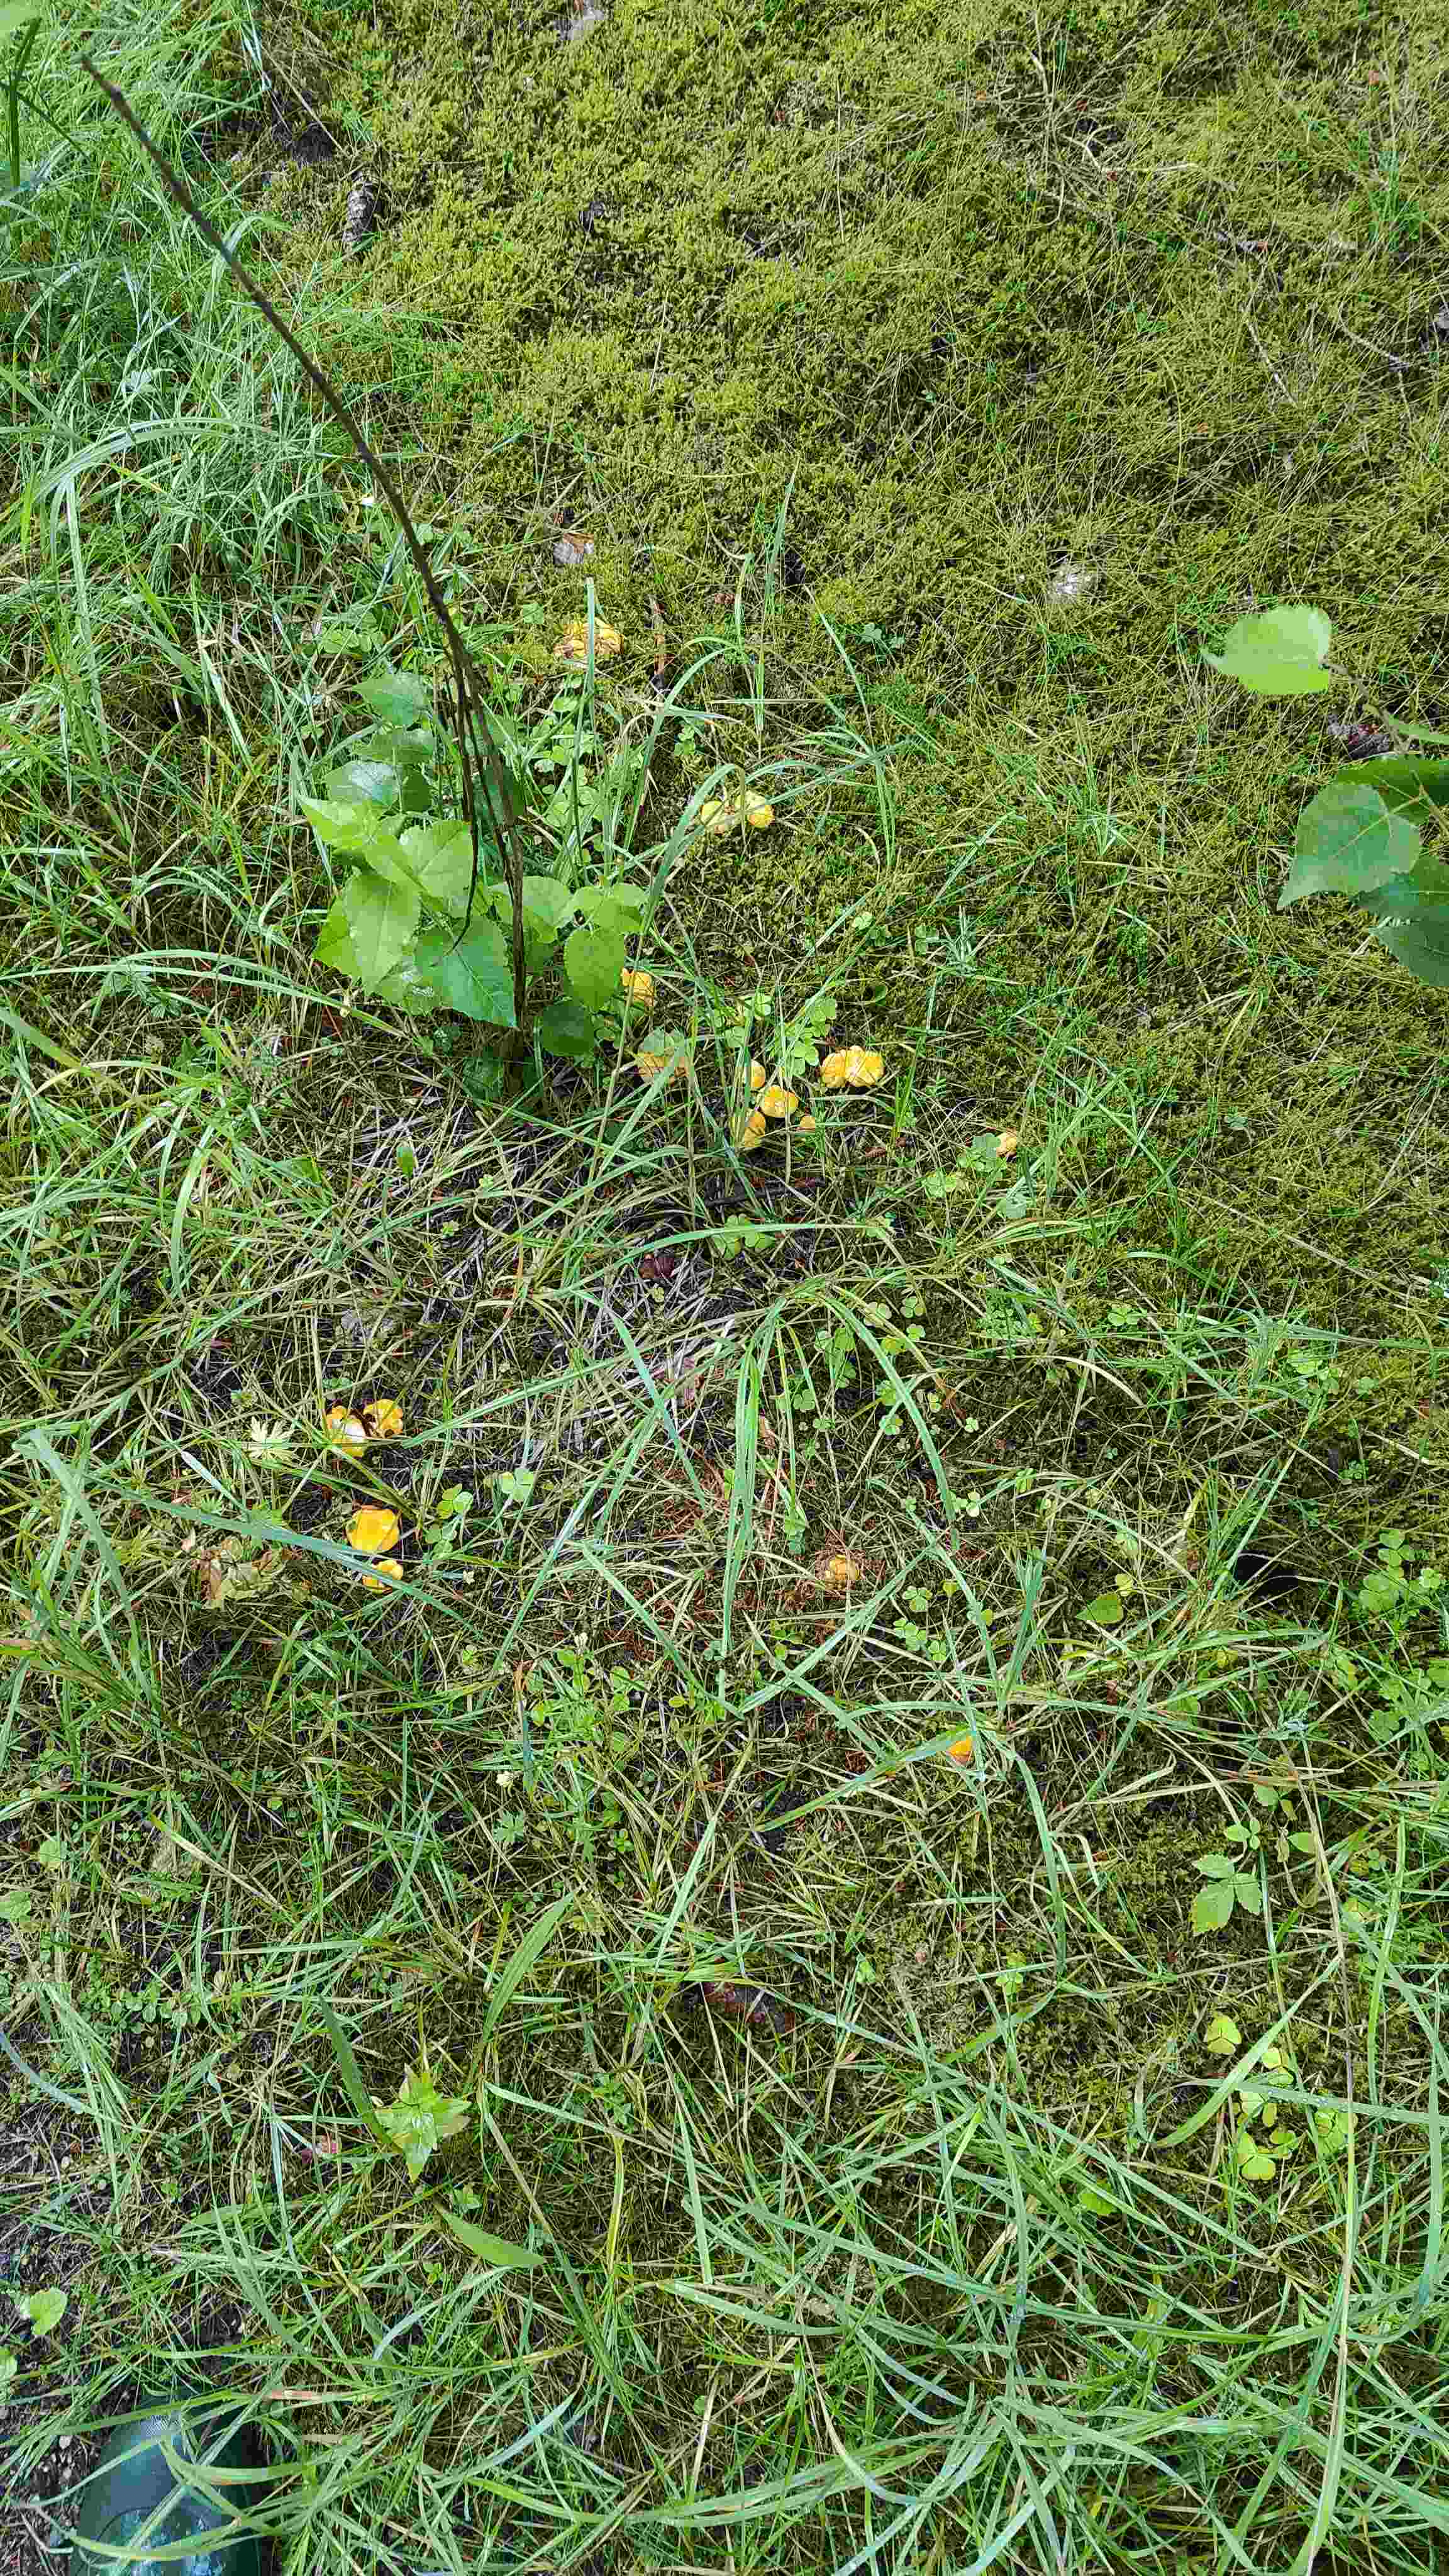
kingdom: Fungi
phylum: Basidiomycota
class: Agaricomycetes
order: Cantharellales
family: Hydnaceae
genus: Cantharellus
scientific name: Cantharellus cibarius
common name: almindelig kantarel
